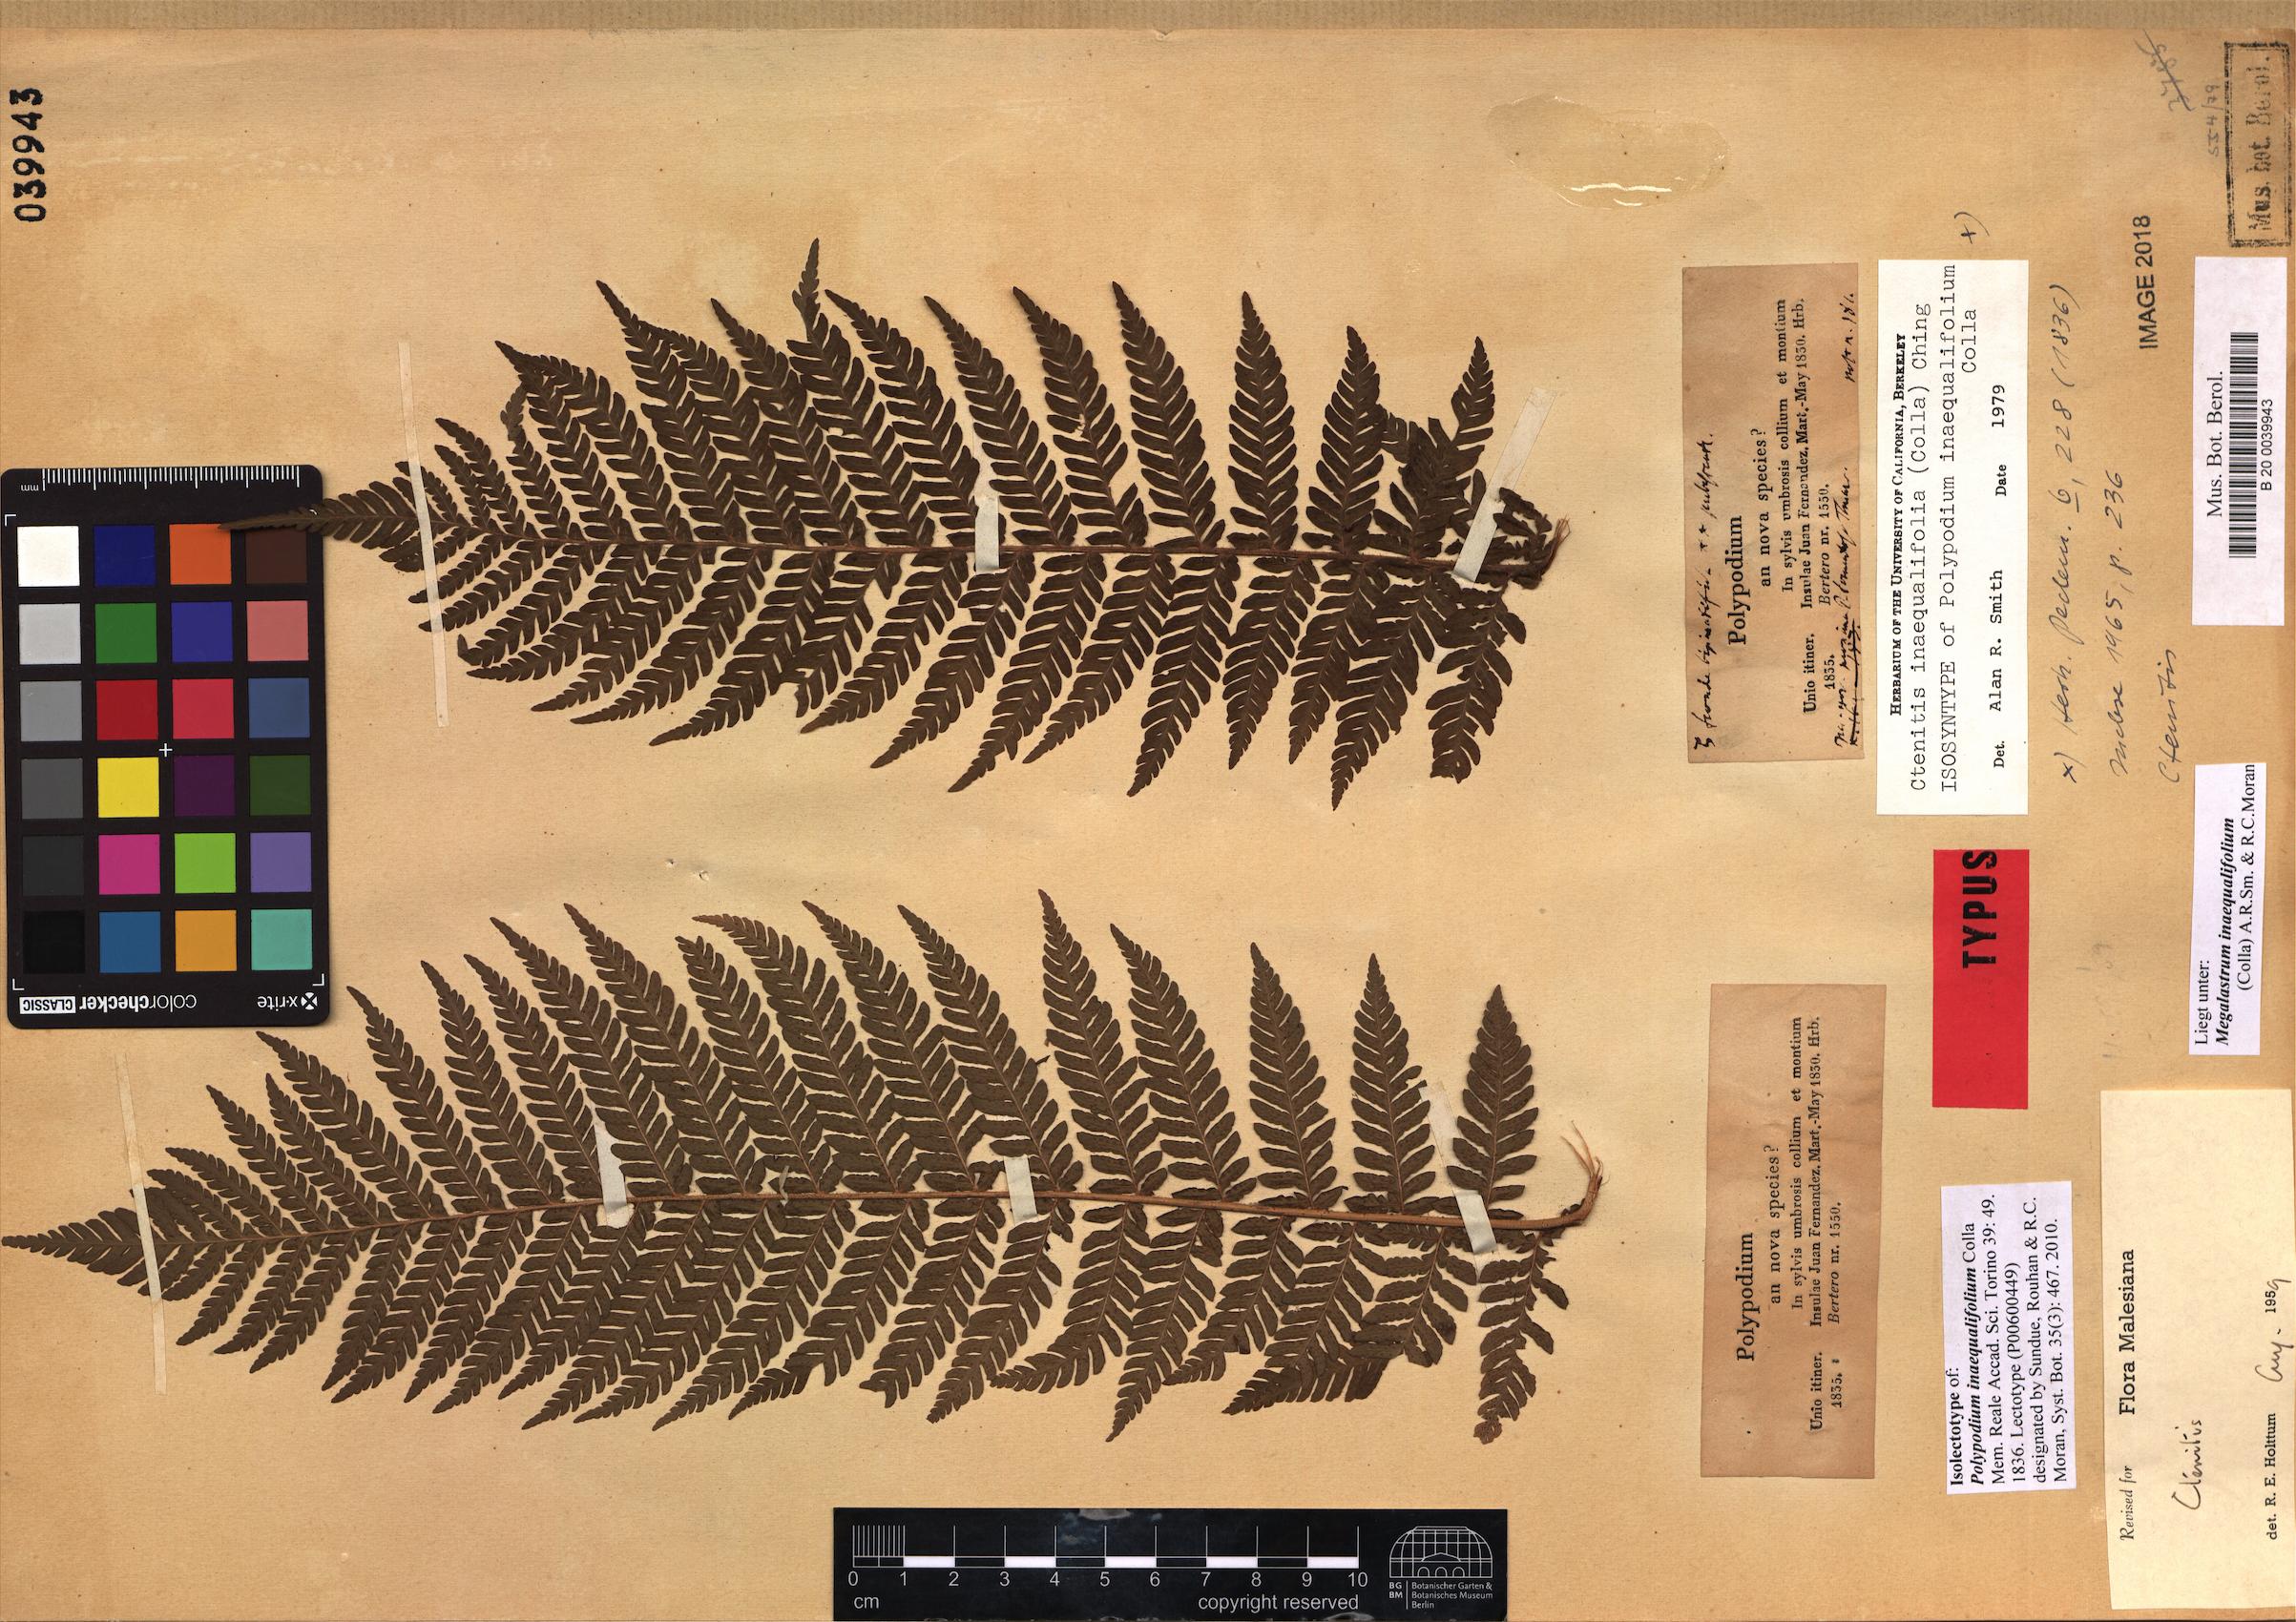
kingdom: Plantae
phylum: Tracheophyta
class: Polypodiopsida
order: Polypodiales
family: Dryopteridaceae
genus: Megalastrum
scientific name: Megalastrum inaequalifolium
